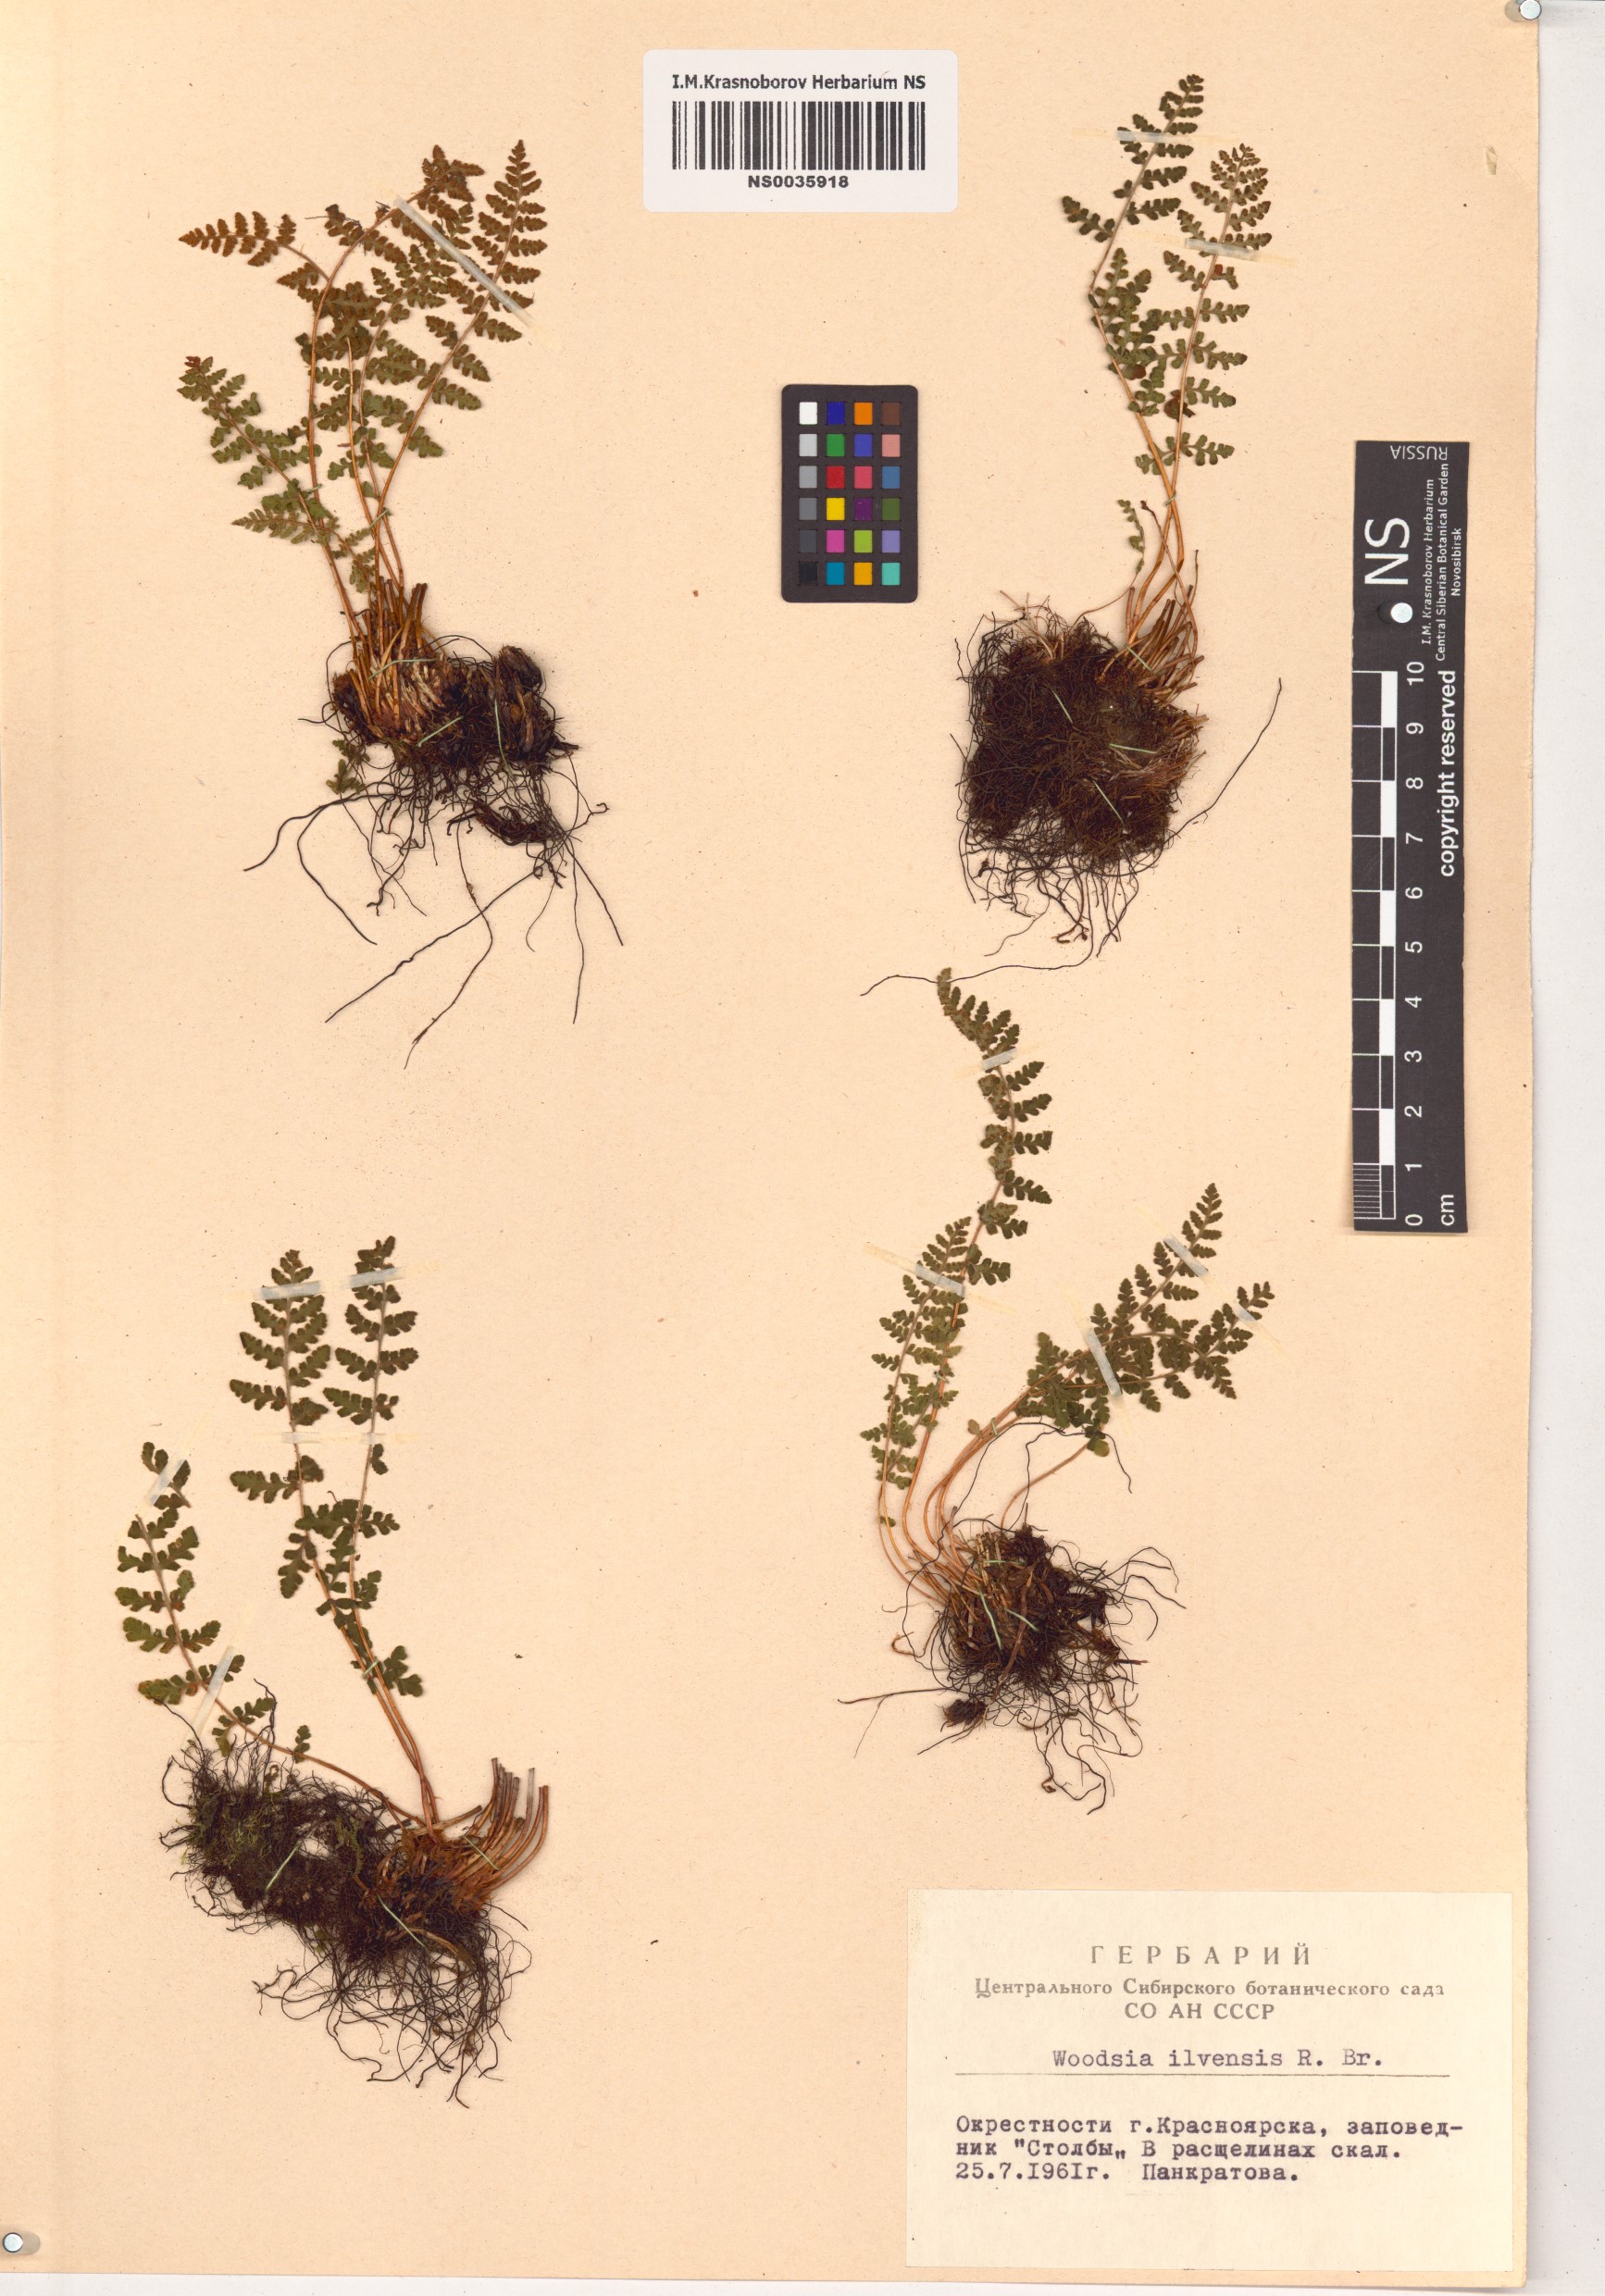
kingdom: Plantae
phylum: Tracheophyta
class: Polypodiopsida
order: Polypodiales
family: Woodsiaceae
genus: Woodsia
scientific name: Woodsia ilvensis
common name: Fragrant woodsia
